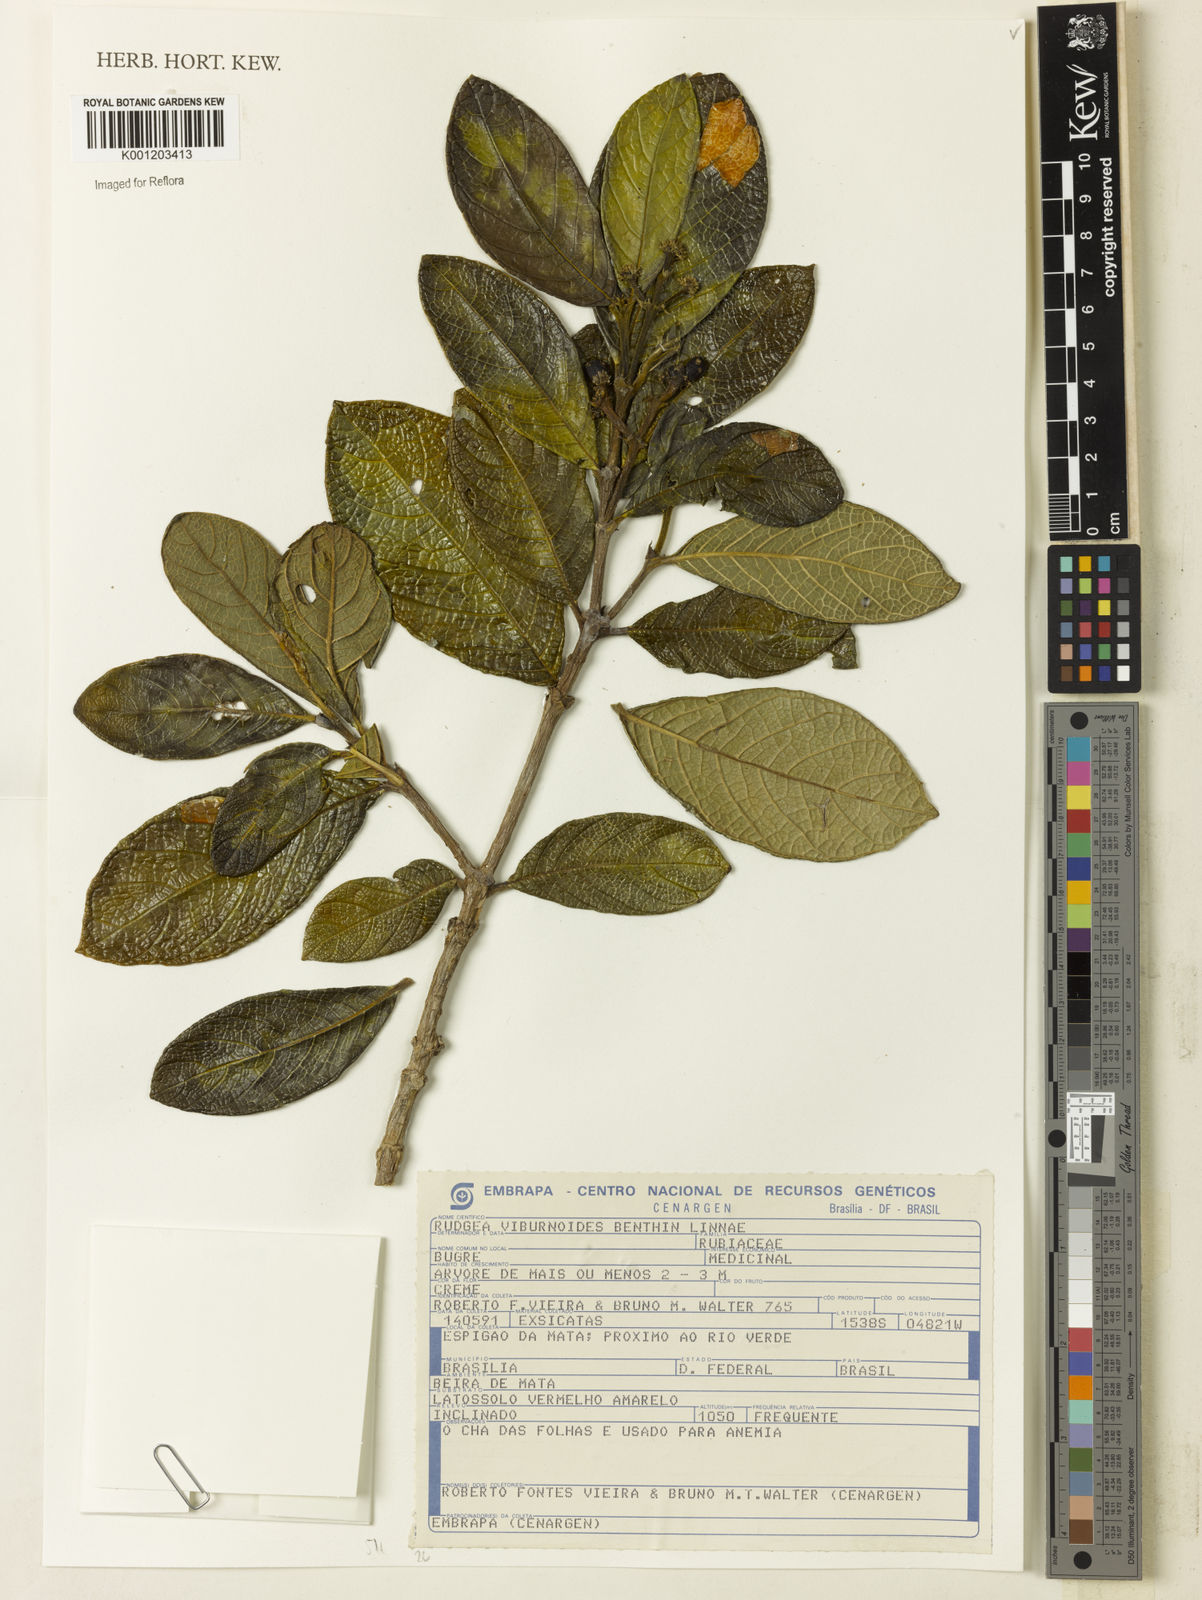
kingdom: Plantae
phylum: Tracheophyta
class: Magnoliopsida
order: Gentianales
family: Rubiaceae
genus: Rudgea
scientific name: Rudgea viburnoides
